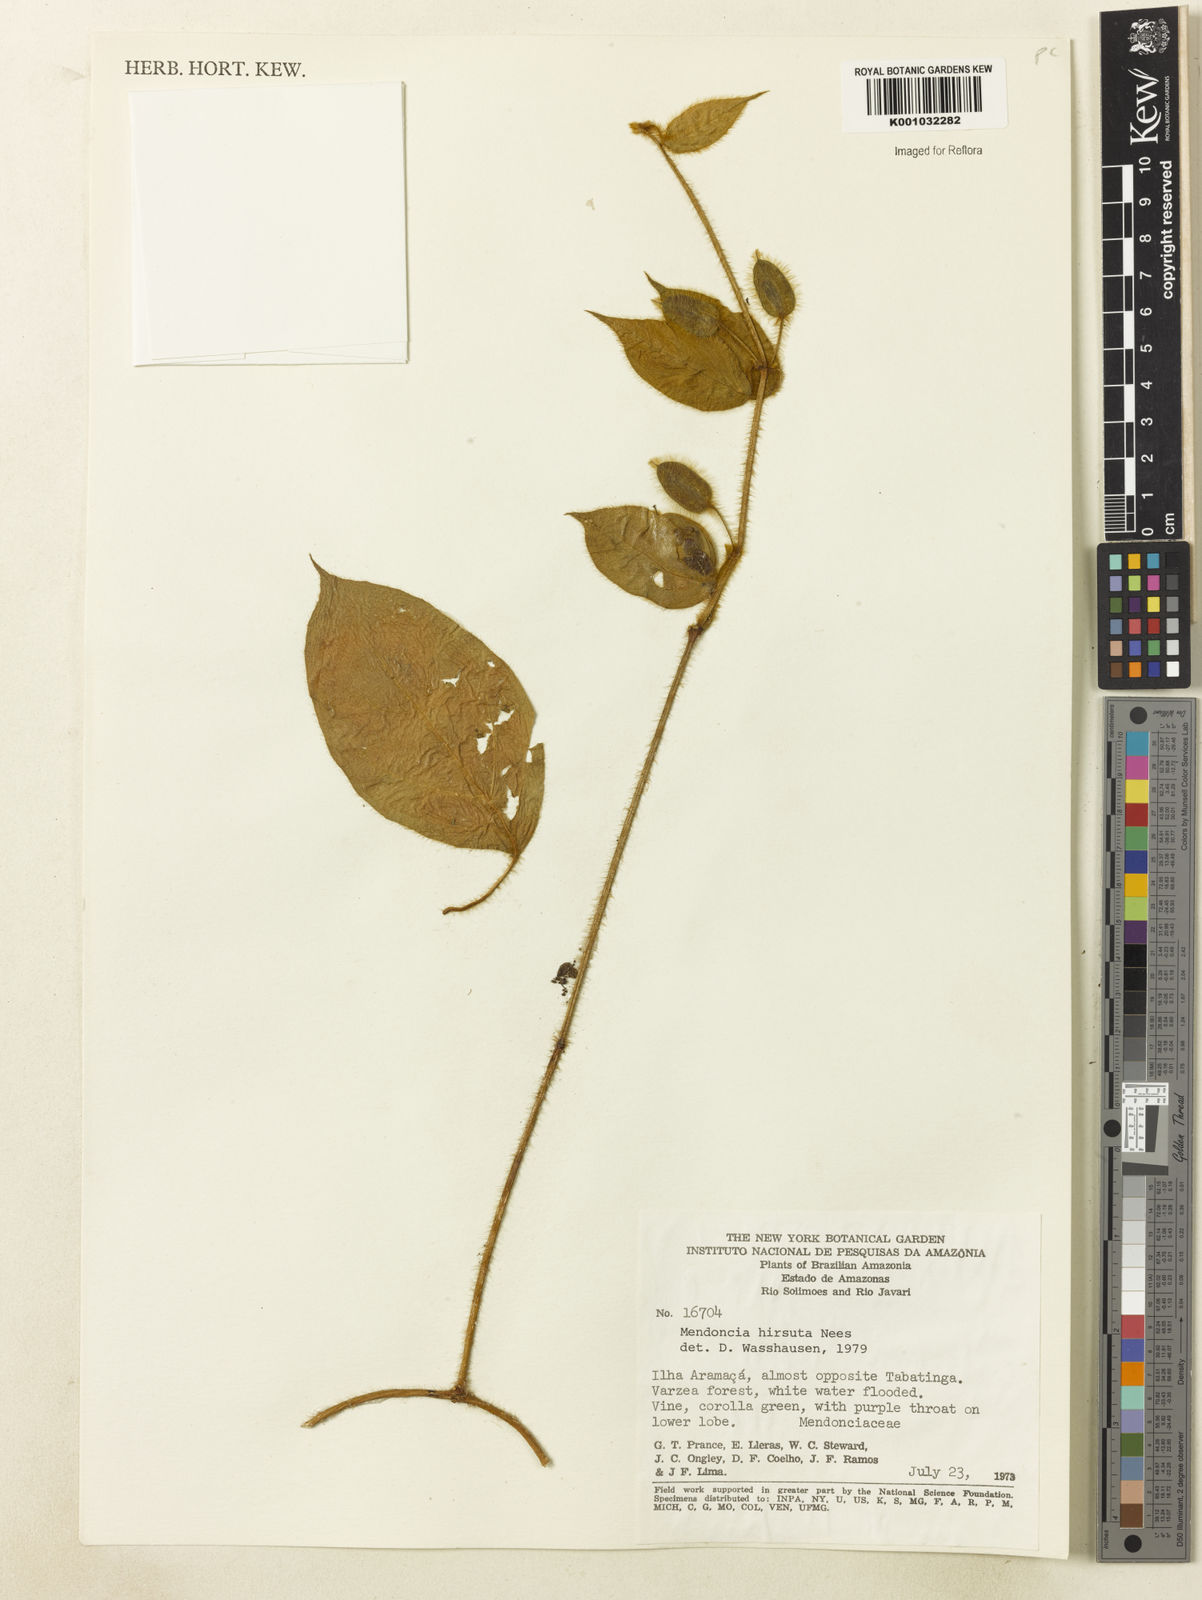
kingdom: Plantae
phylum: Tracheophyta
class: Magnoliopsida
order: Lamiales
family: Acanthaceae
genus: Mendoncia
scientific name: Mendoncia
